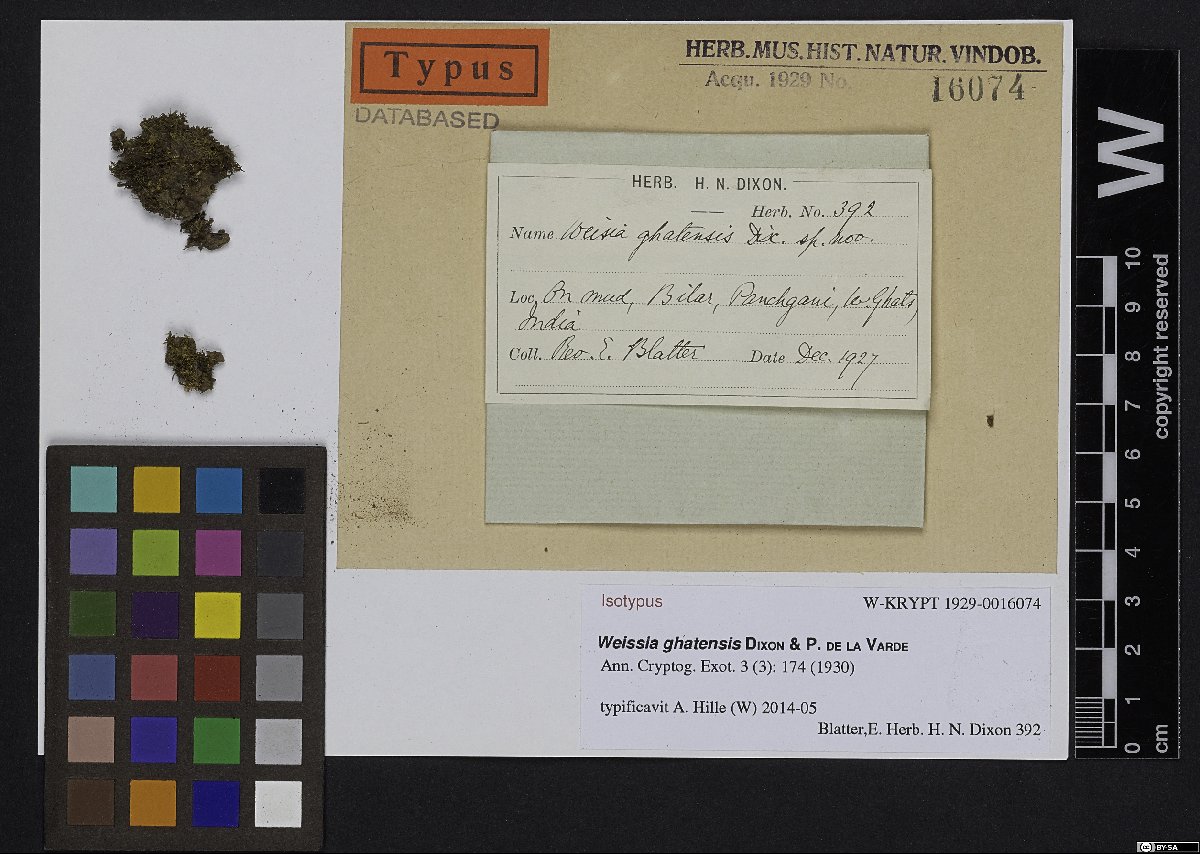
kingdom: Plantae
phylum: Bryophyta
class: Bryopsida
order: Pottiales
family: Pottiaceae
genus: Weissia
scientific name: Weissia ghatensis
